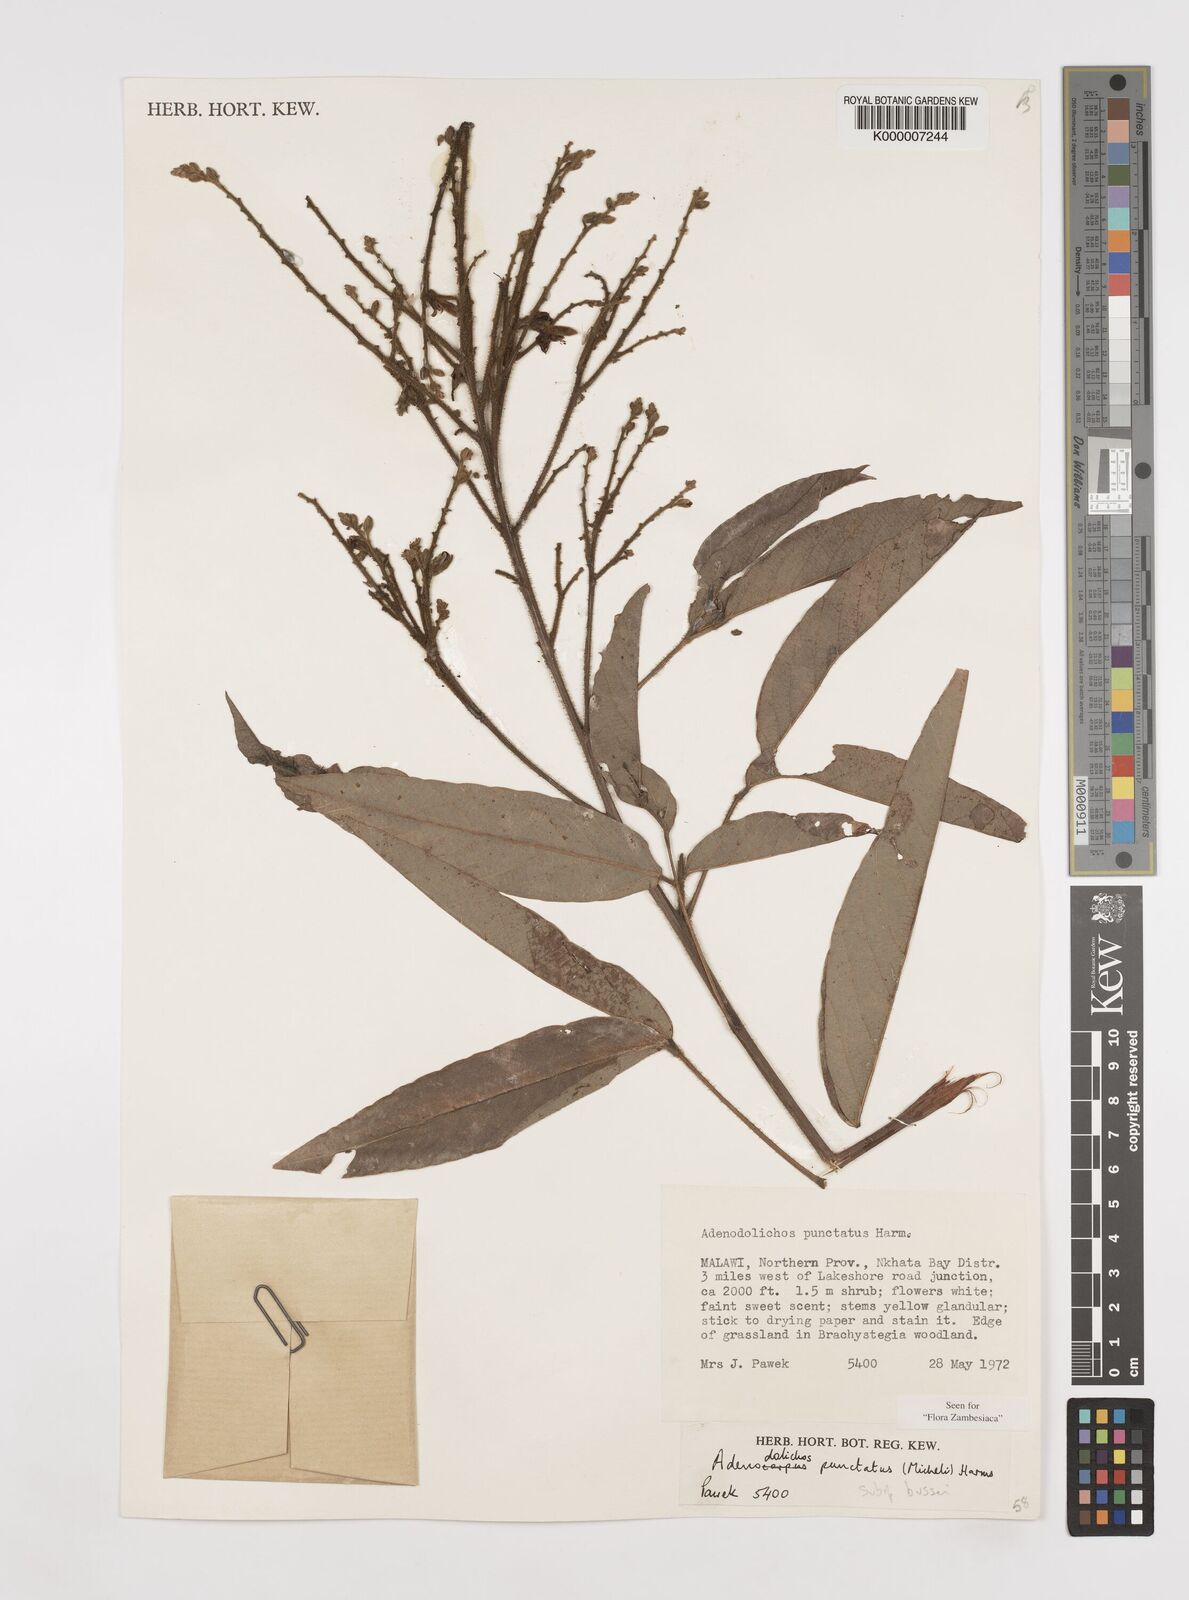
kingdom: Plantae
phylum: Tracheophyta
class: Magnoliopsida
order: Fabales
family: Fabaceae
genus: Adenodolichos
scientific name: Adenodolichos punctatus
